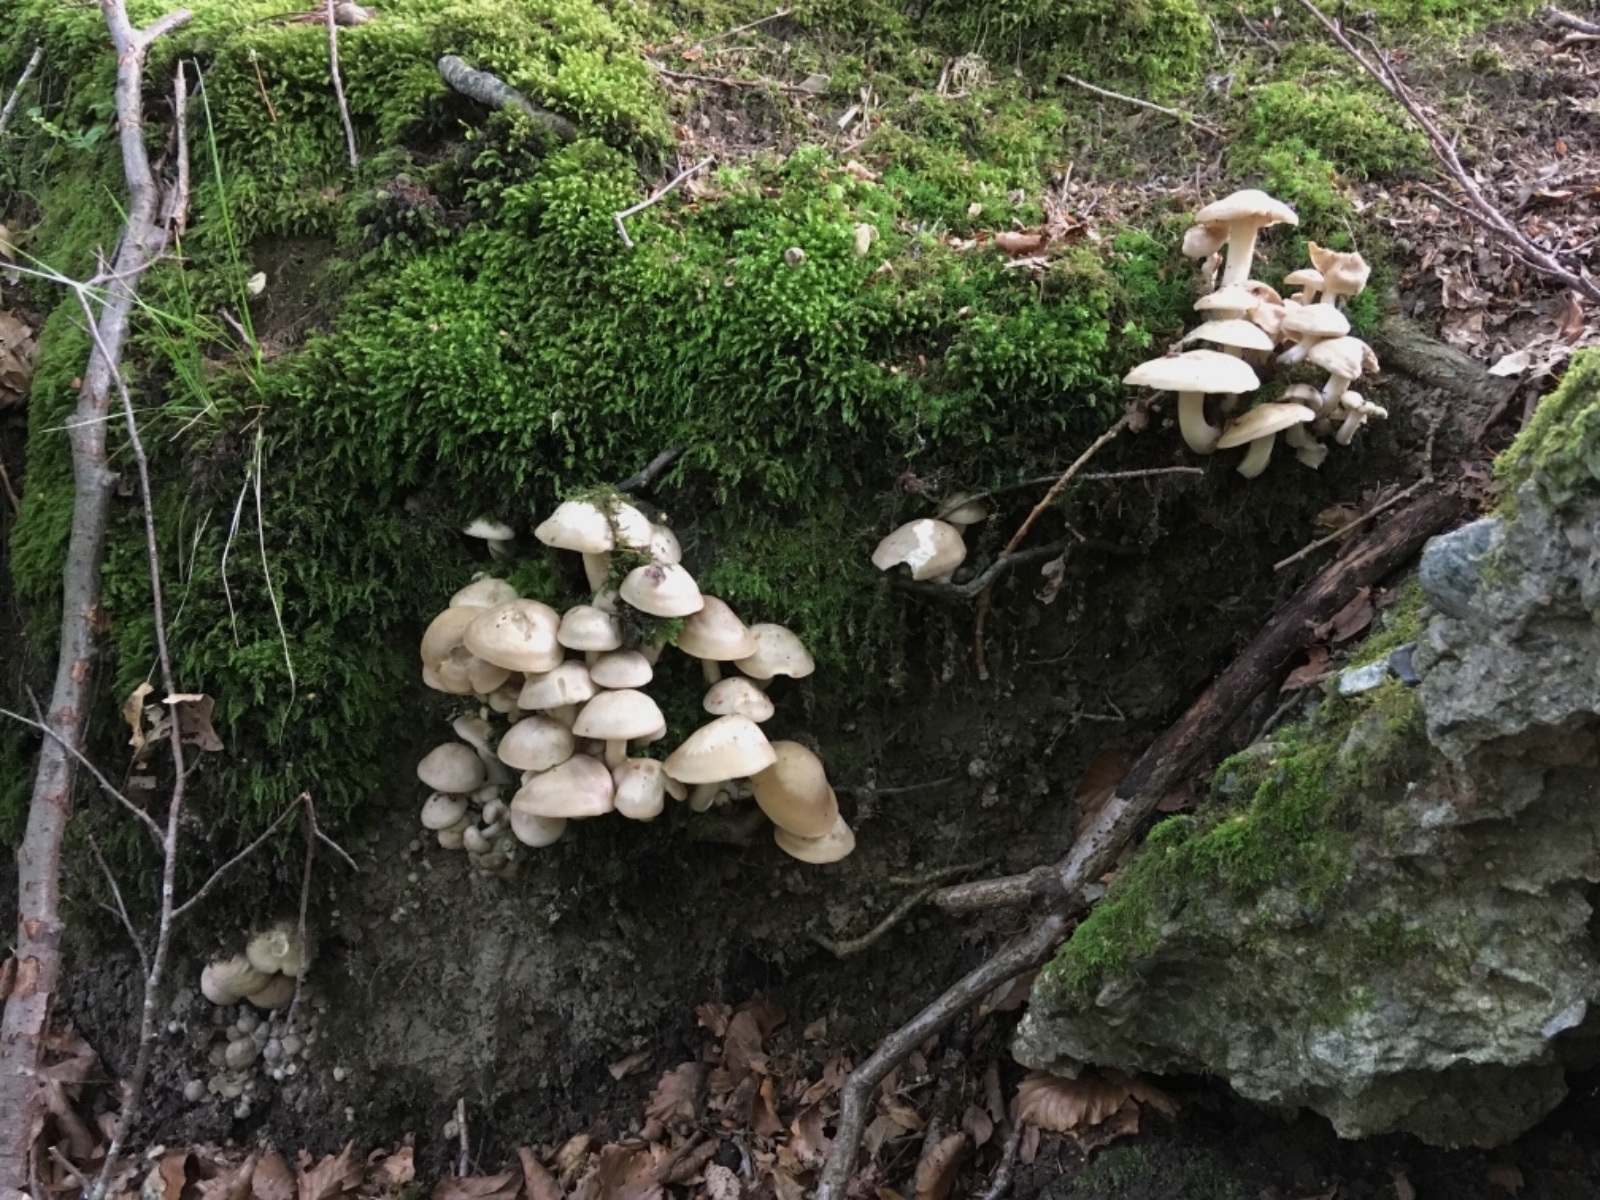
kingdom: Fungi
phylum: Basidiomycota
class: Agaricomycetes
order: Agaricales
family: Lyophyllaceae
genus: Lyophyllum
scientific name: Lyophyllum decastes
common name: Clustered domecap
